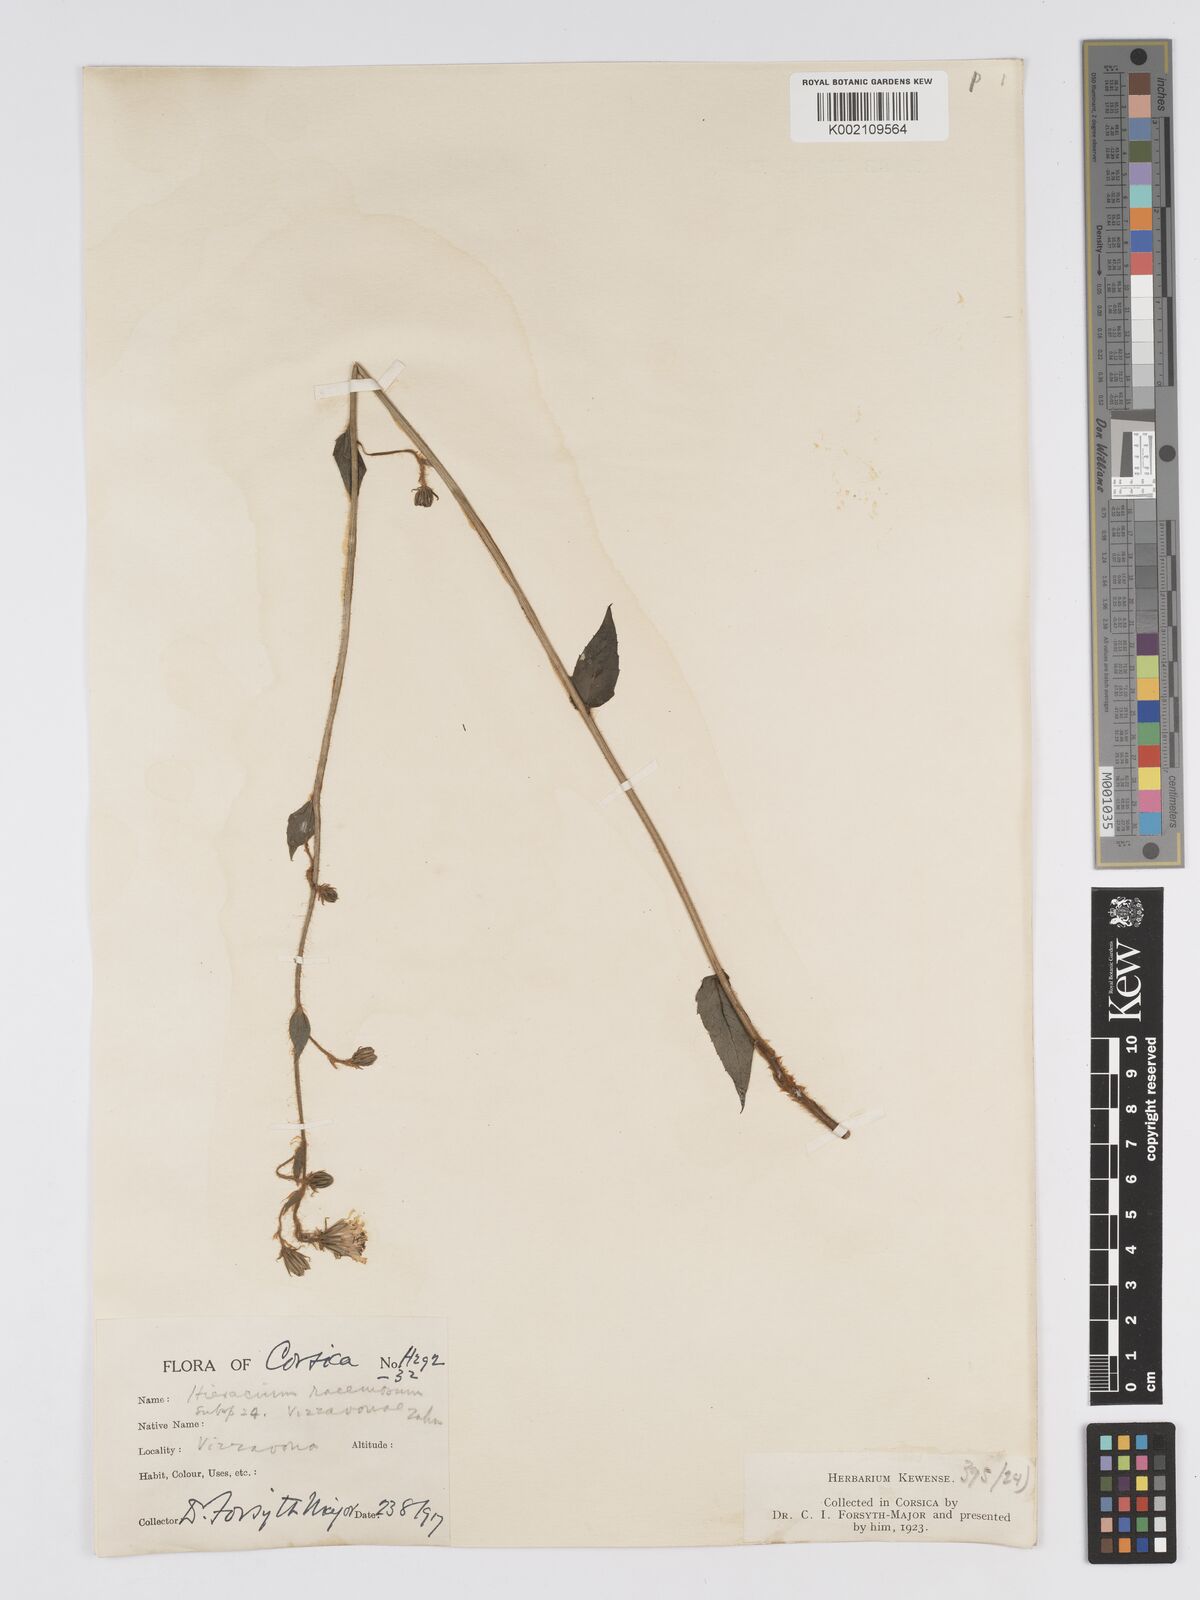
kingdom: Plantae
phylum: Tracheophyta
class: Magnoliopsida
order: Asterales
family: Asteraceae
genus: Hieracium
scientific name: Hieracium racemosum
